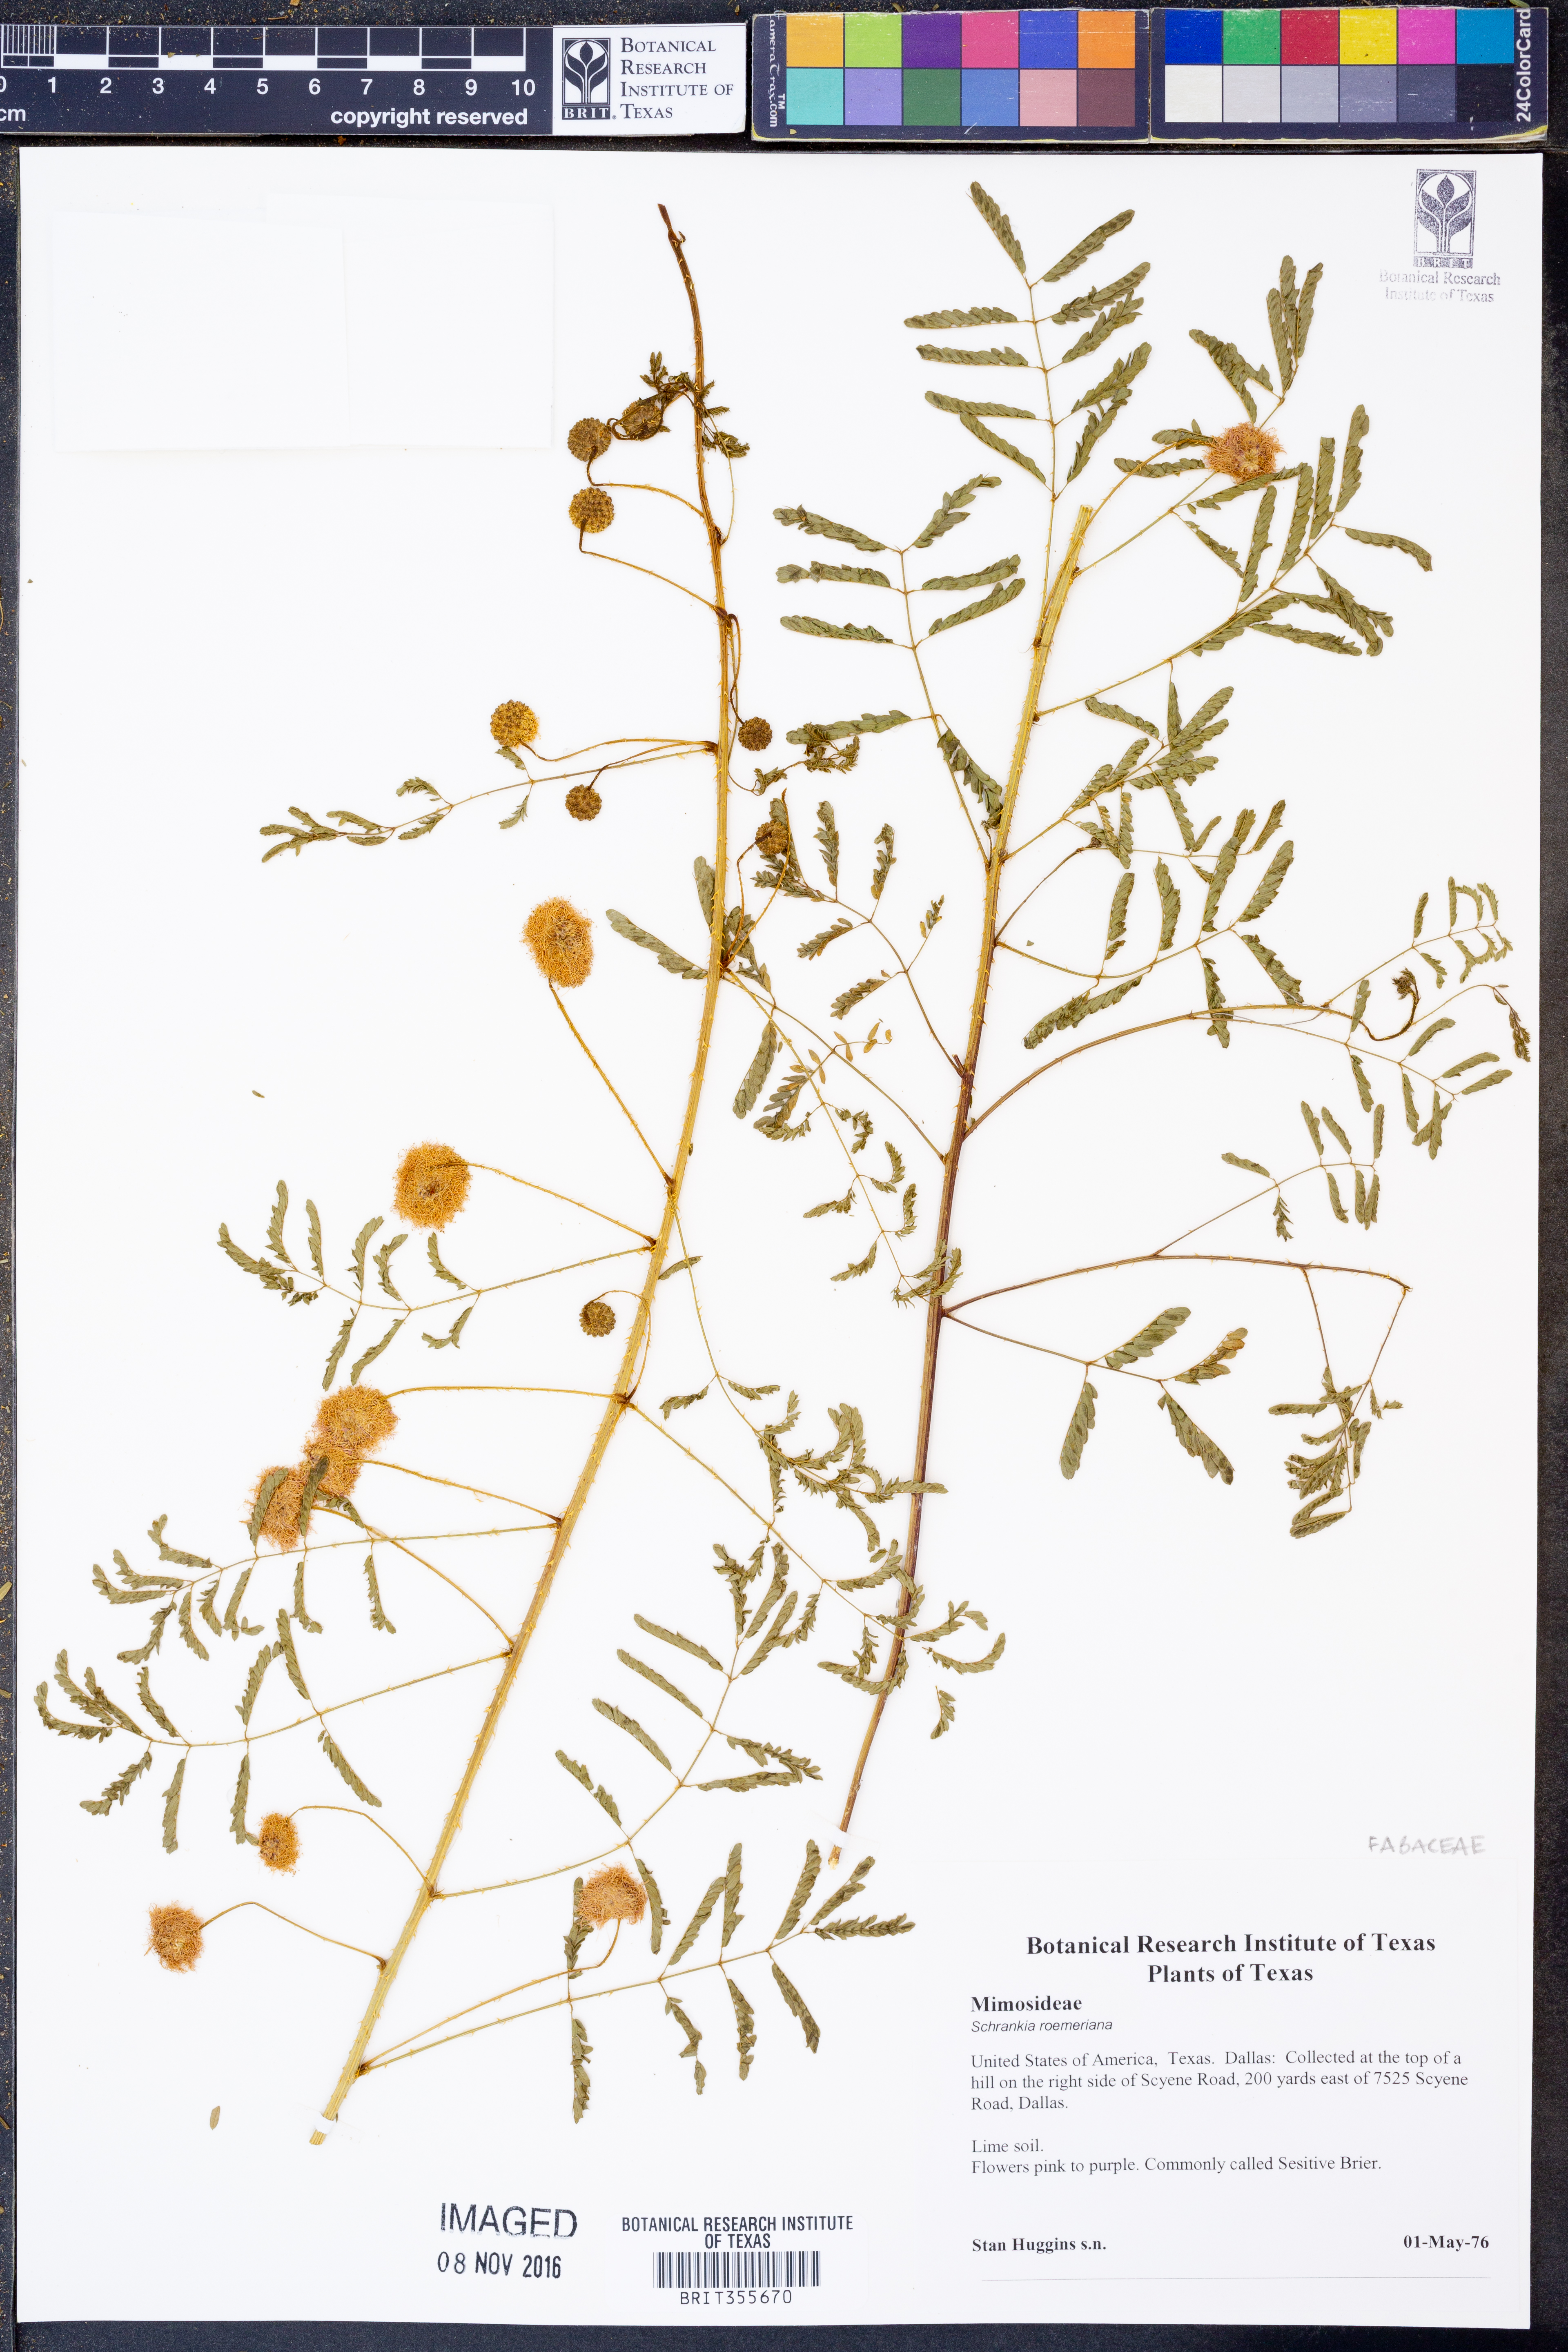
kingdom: Plantae
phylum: Tracheophyta
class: Magnoliopsida
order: Fabales
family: Fabaceae
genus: Mimosa
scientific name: Mimosa quadrivalvis
